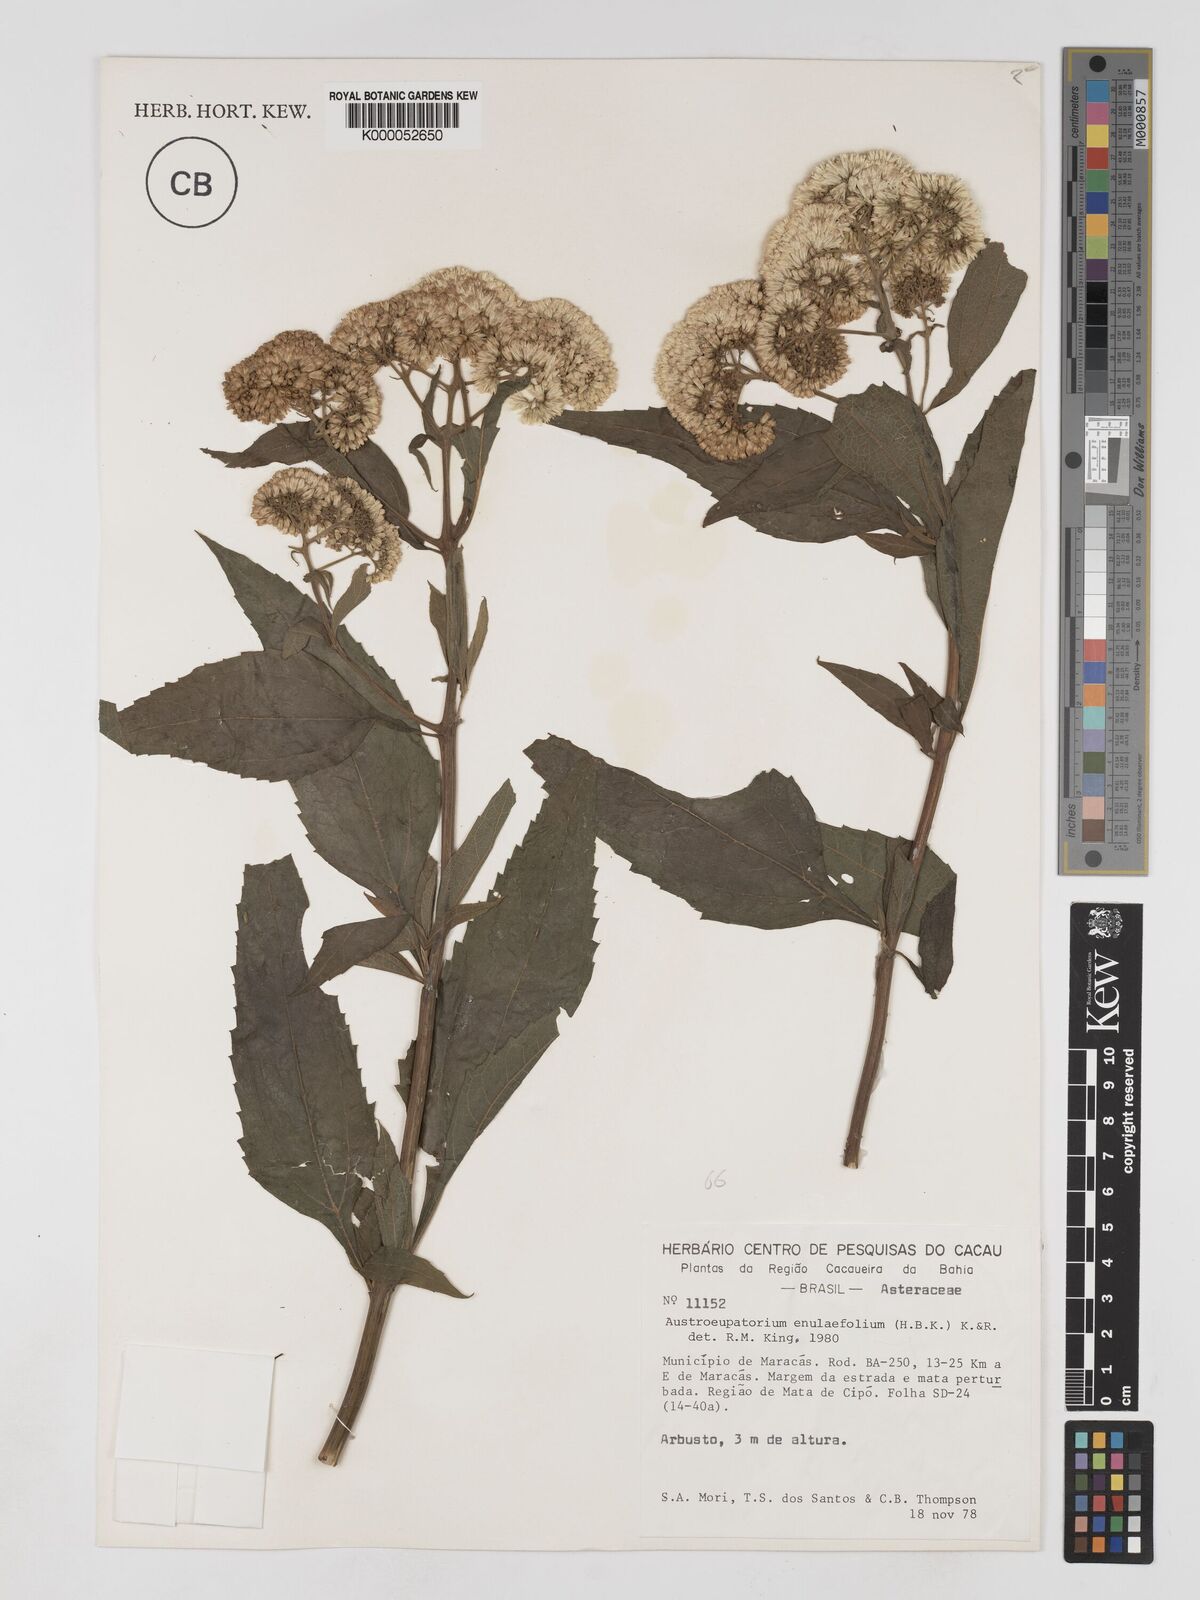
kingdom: Plantae
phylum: Tracheophyta
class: Magnoliopsida
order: Asterales
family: Asteraceae
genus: Austroeupatorium
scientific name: Austroeupatorium inulifolium
